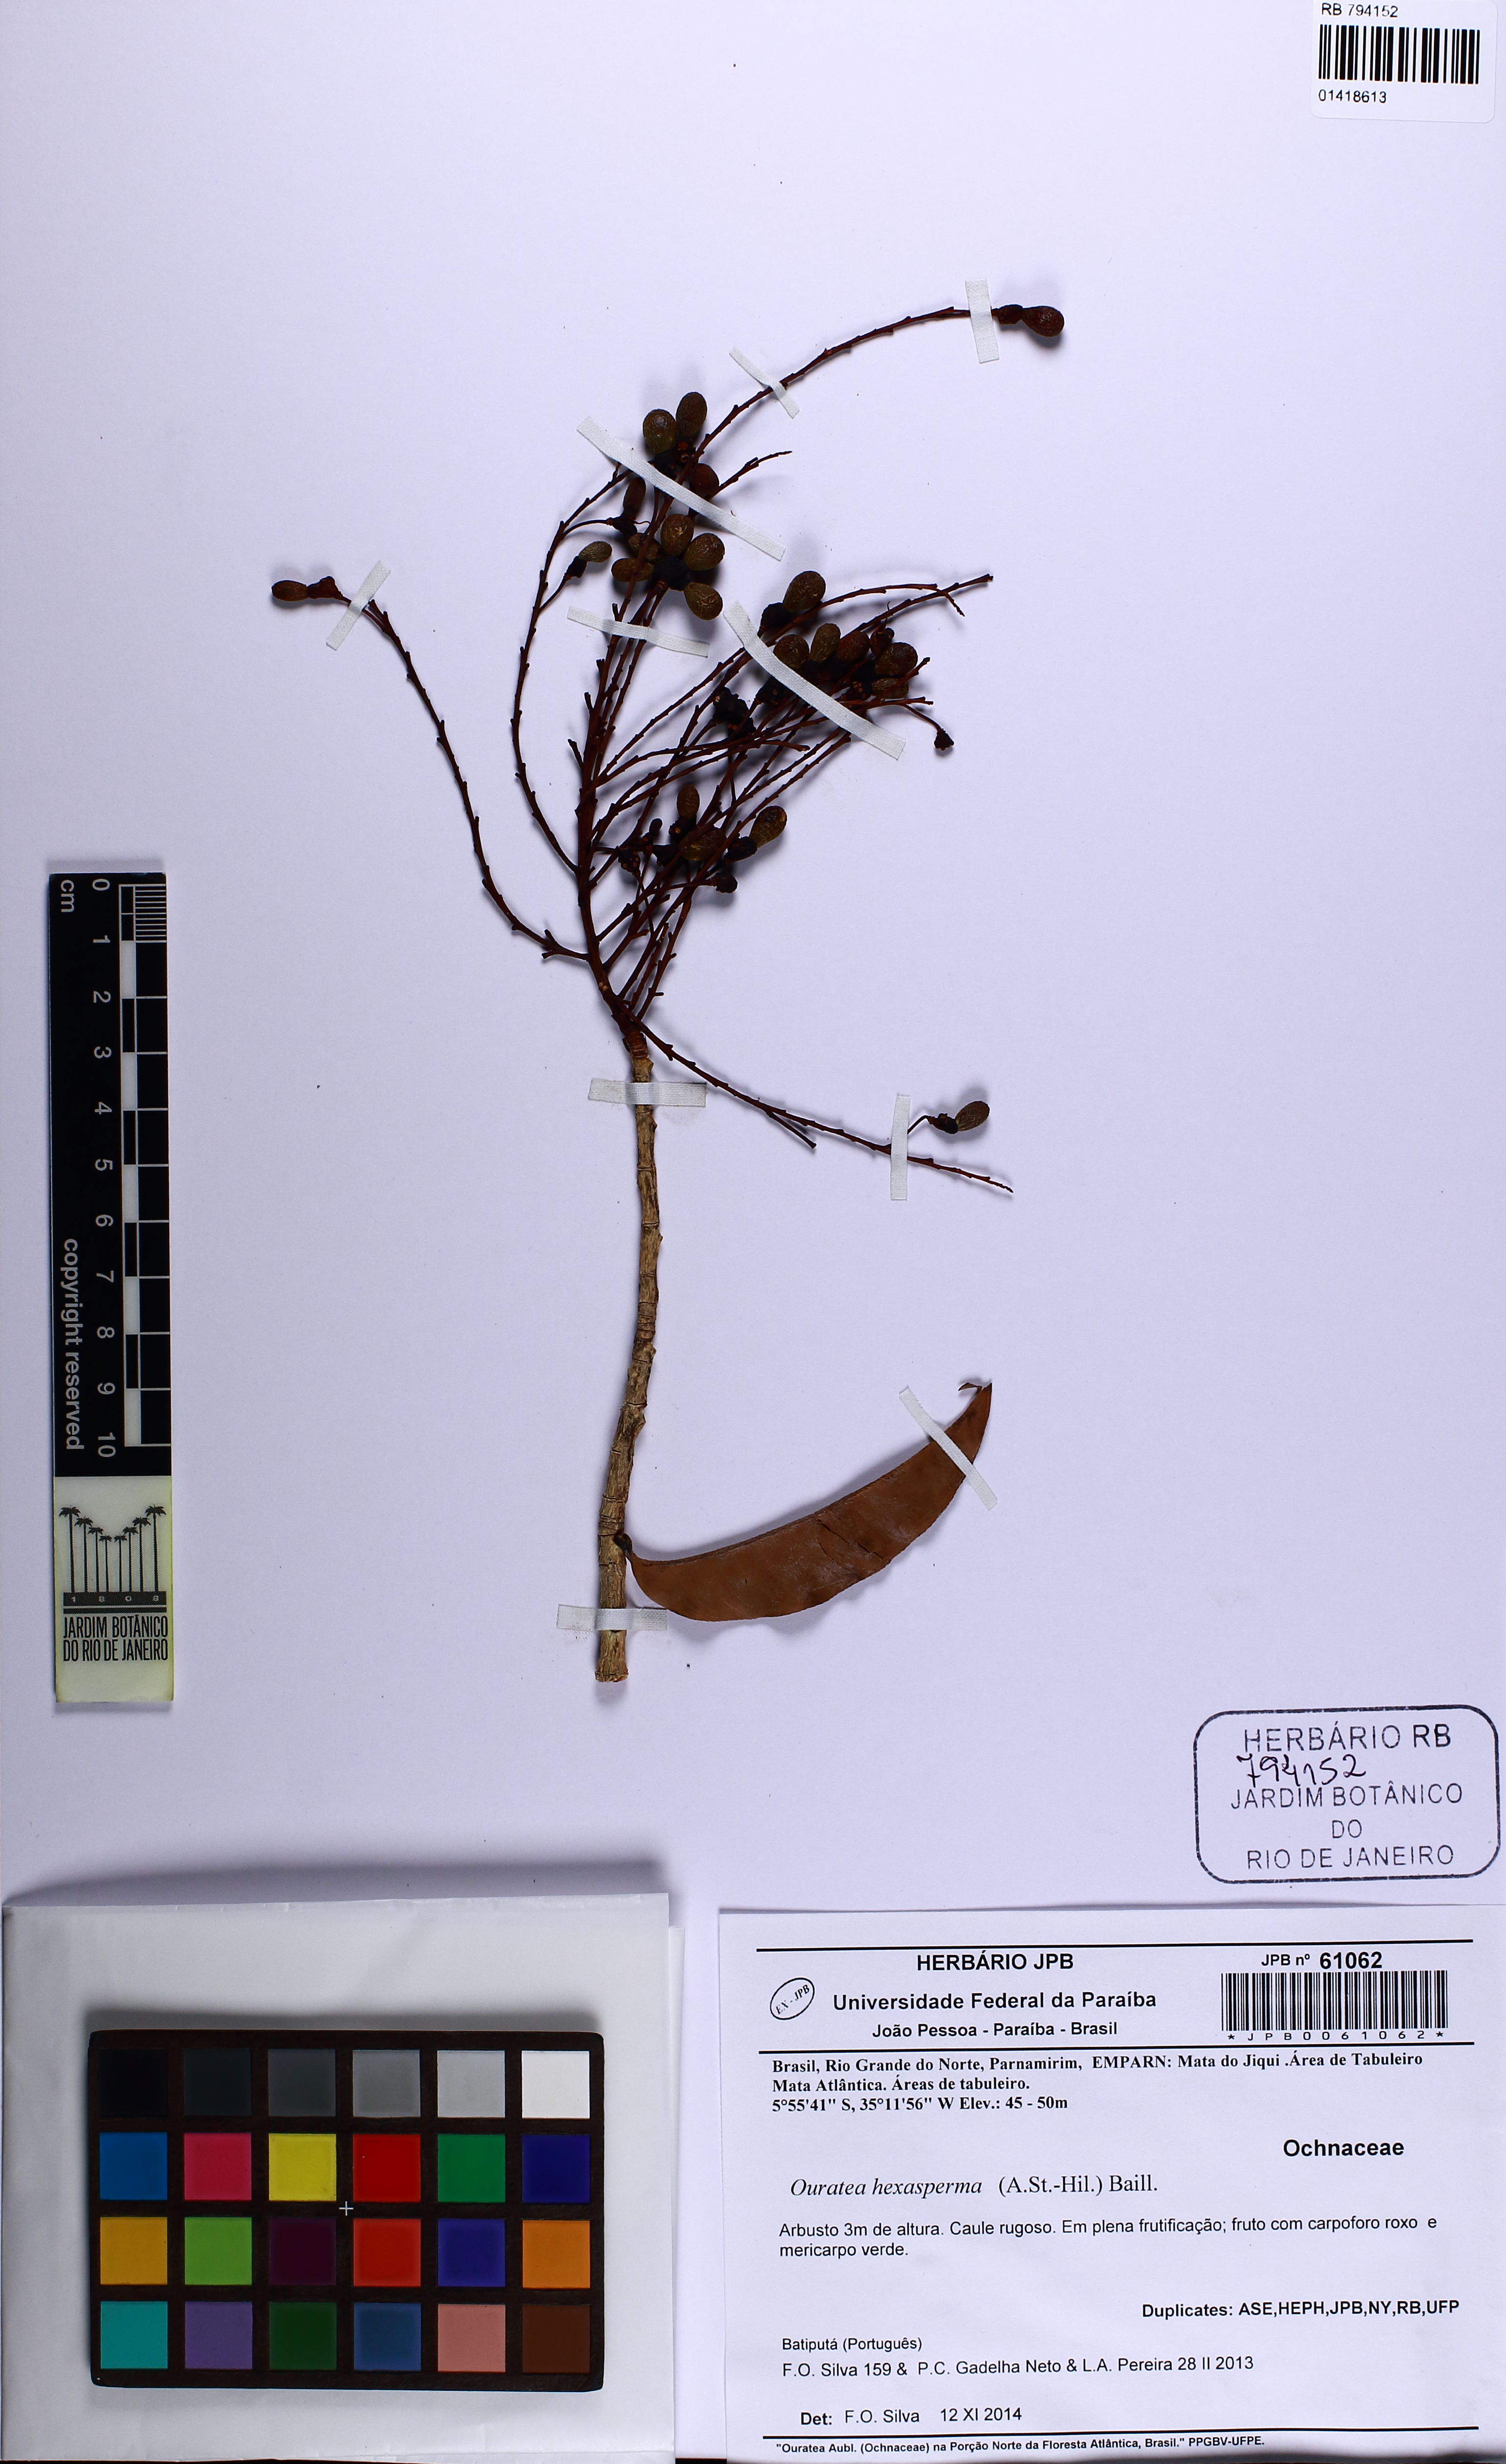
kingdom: Plantae
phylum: Tracheophyta
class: Magnoliopsida
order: Malpighiales
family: Ochnaceae
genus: Ouratea
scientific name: Ouratea hexasperma
